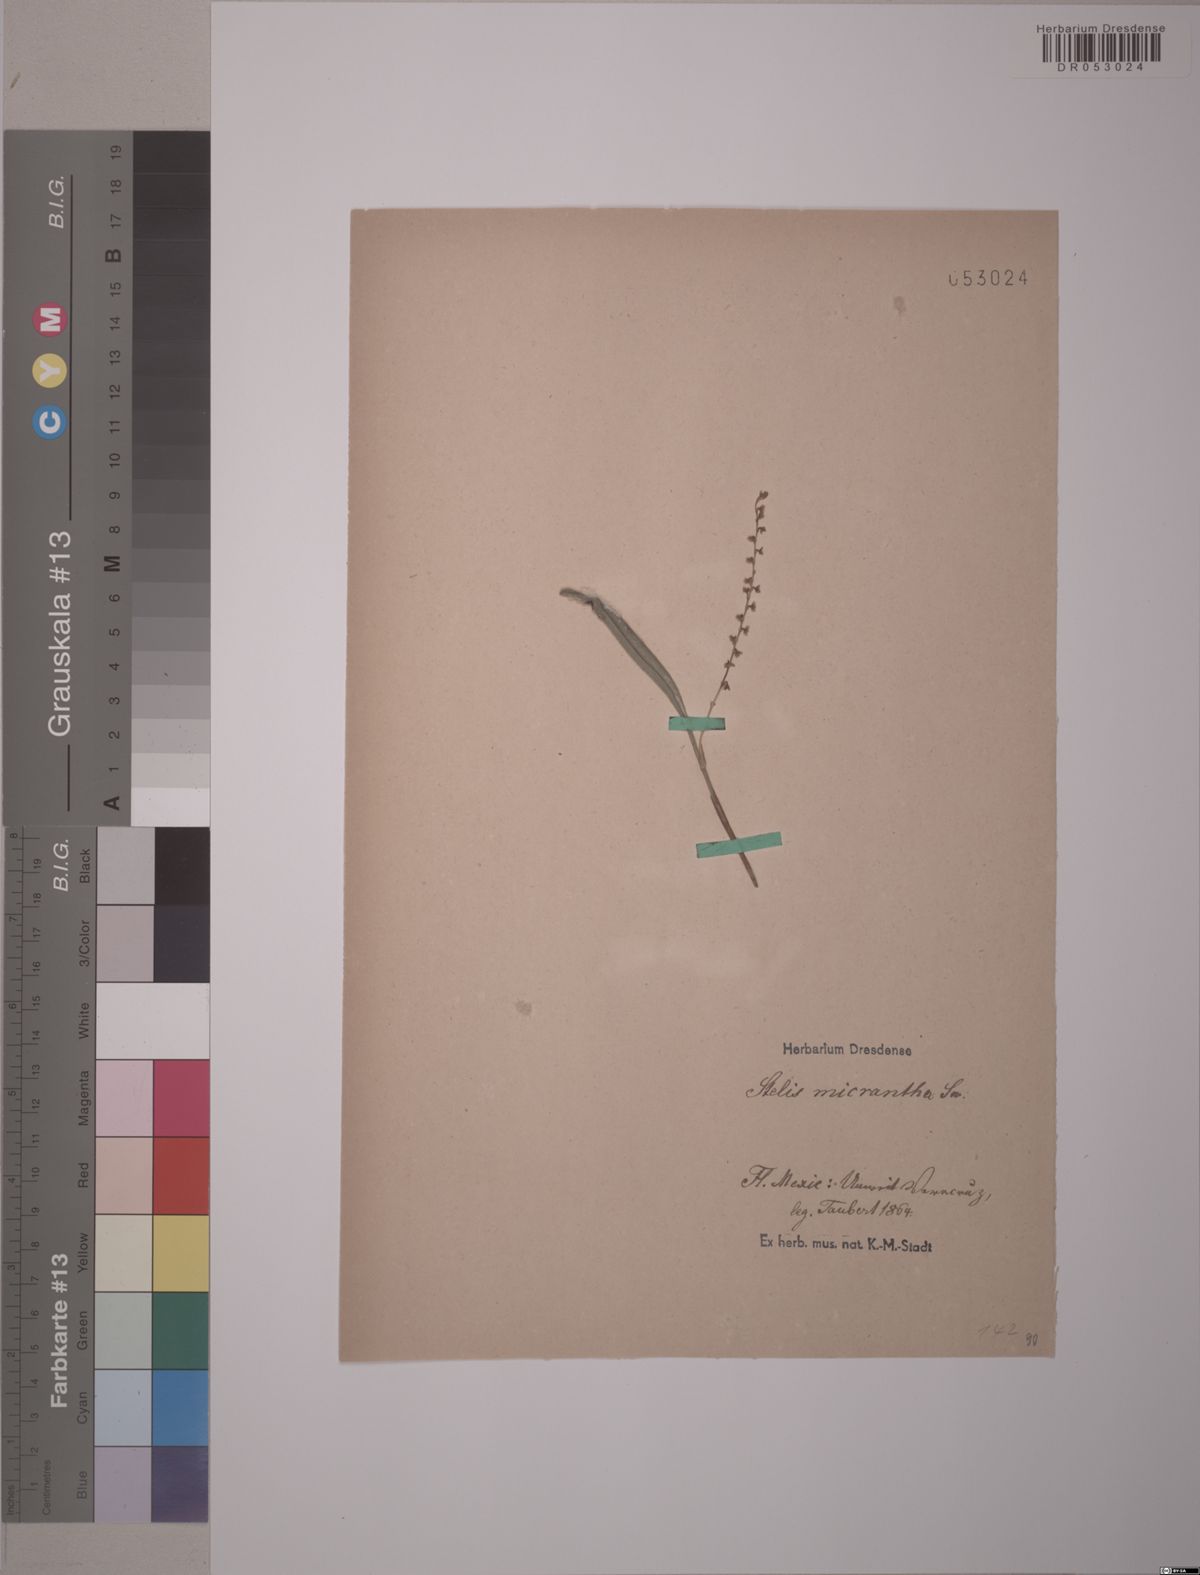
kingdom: Plantae
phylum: Tracheophyta
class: Liliopsida
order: Asparagales
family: Orchidaceae
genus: Stelis
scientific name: Stelis micrantha
